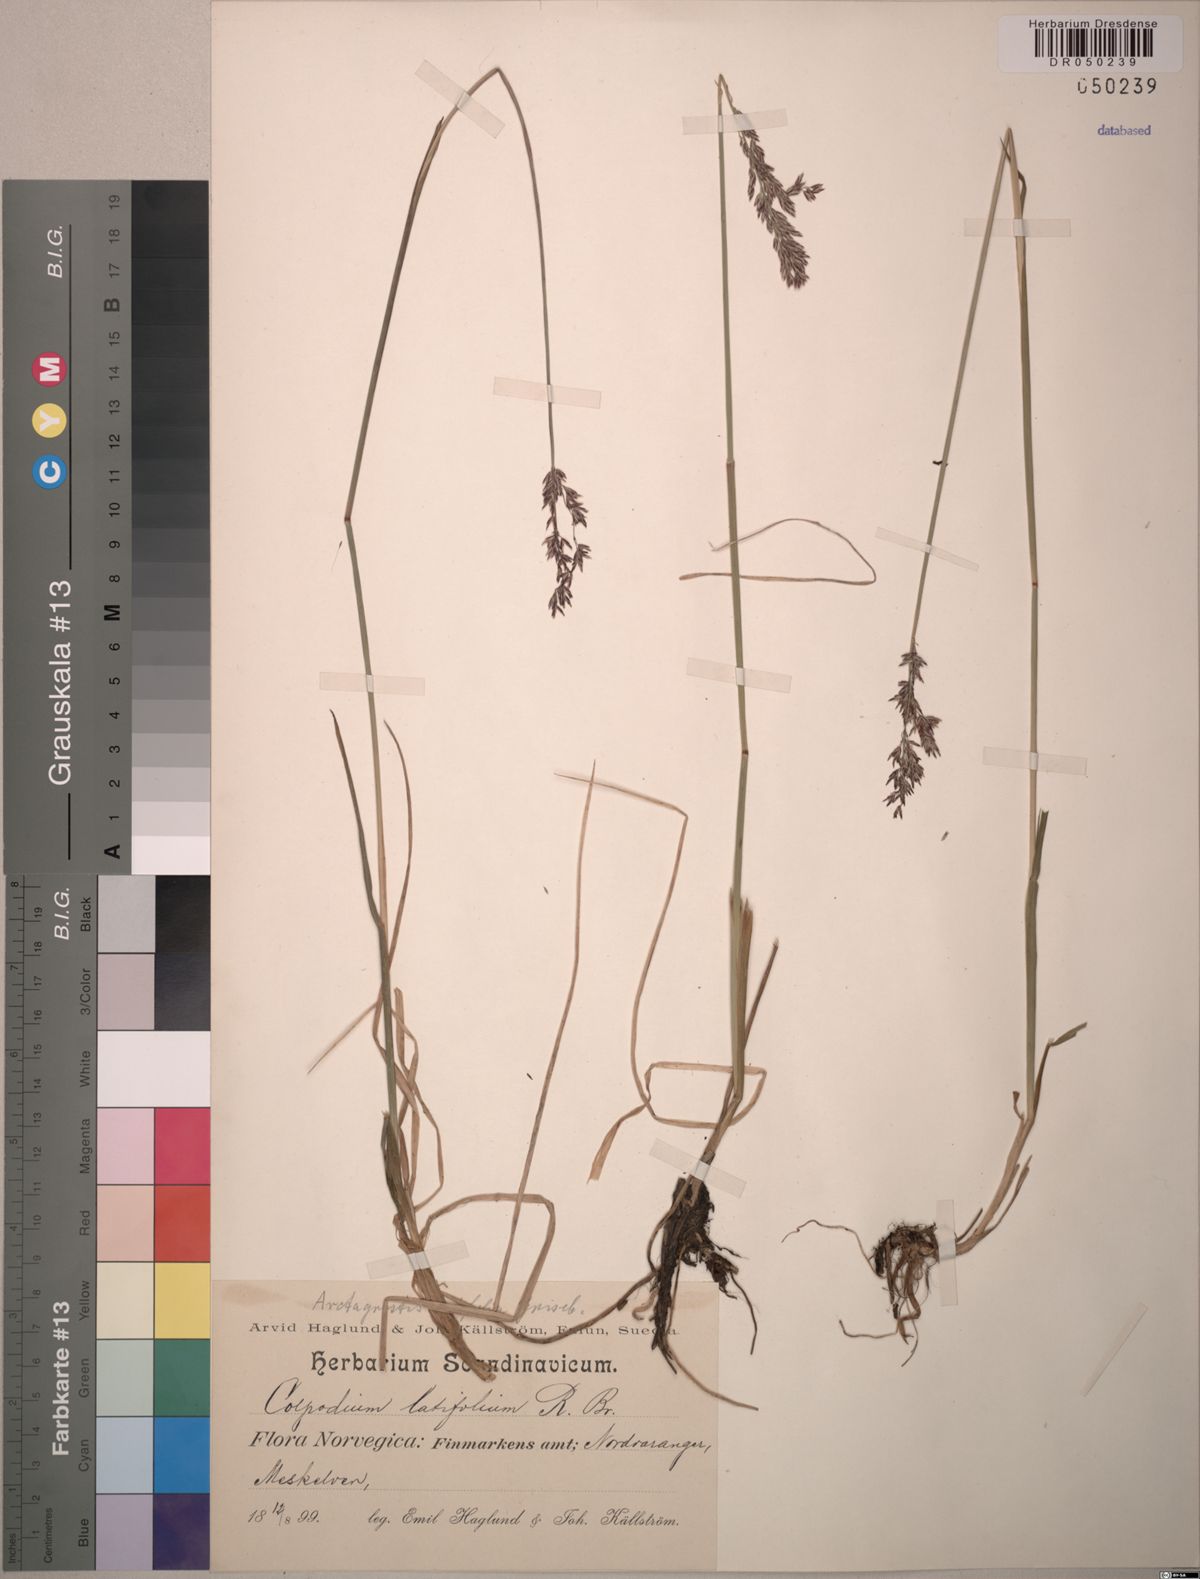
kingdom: Plantae
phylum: Tracheophyta
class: Liliopsida
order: Poales
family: Poaceae
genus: Arctagrostis
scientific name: Arctagrostis latifolia
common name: Arctic grass
